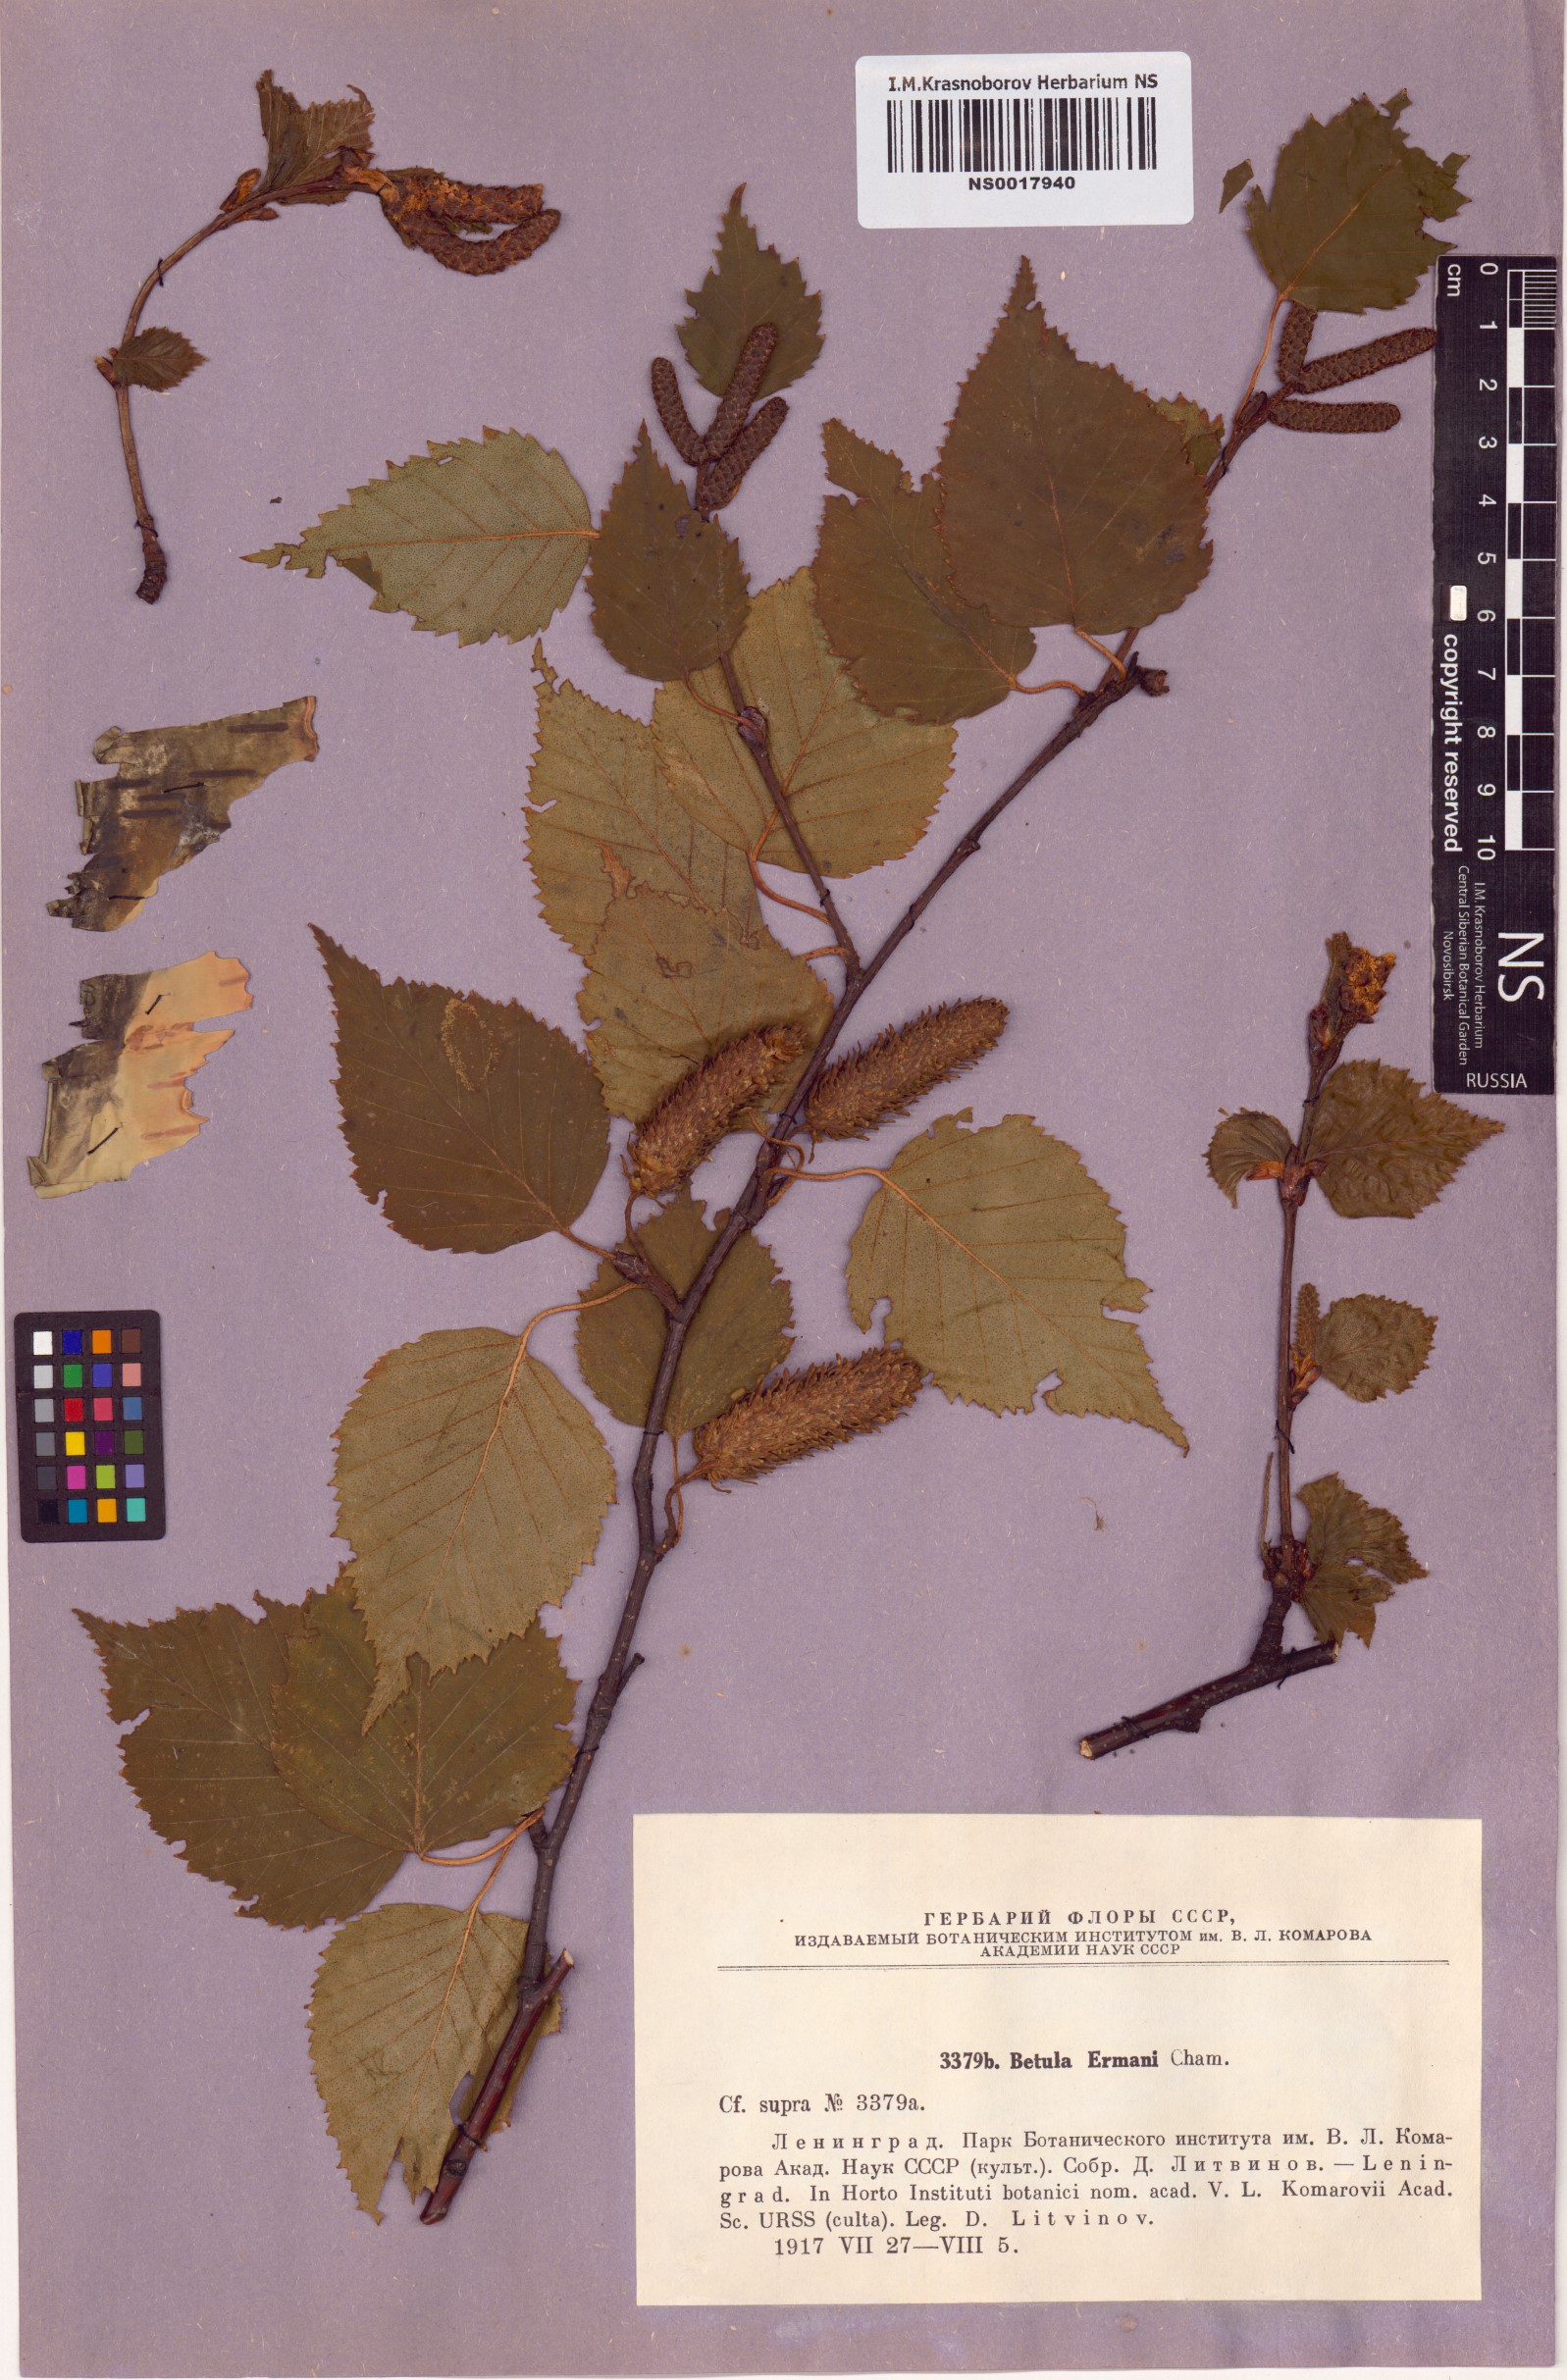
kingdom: Plantae
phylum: Tracheophyta
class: Magnoliopsida
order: Fagales
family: Betulaceae
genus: Betula
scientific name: Betula ermanii
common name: Erman's birch
